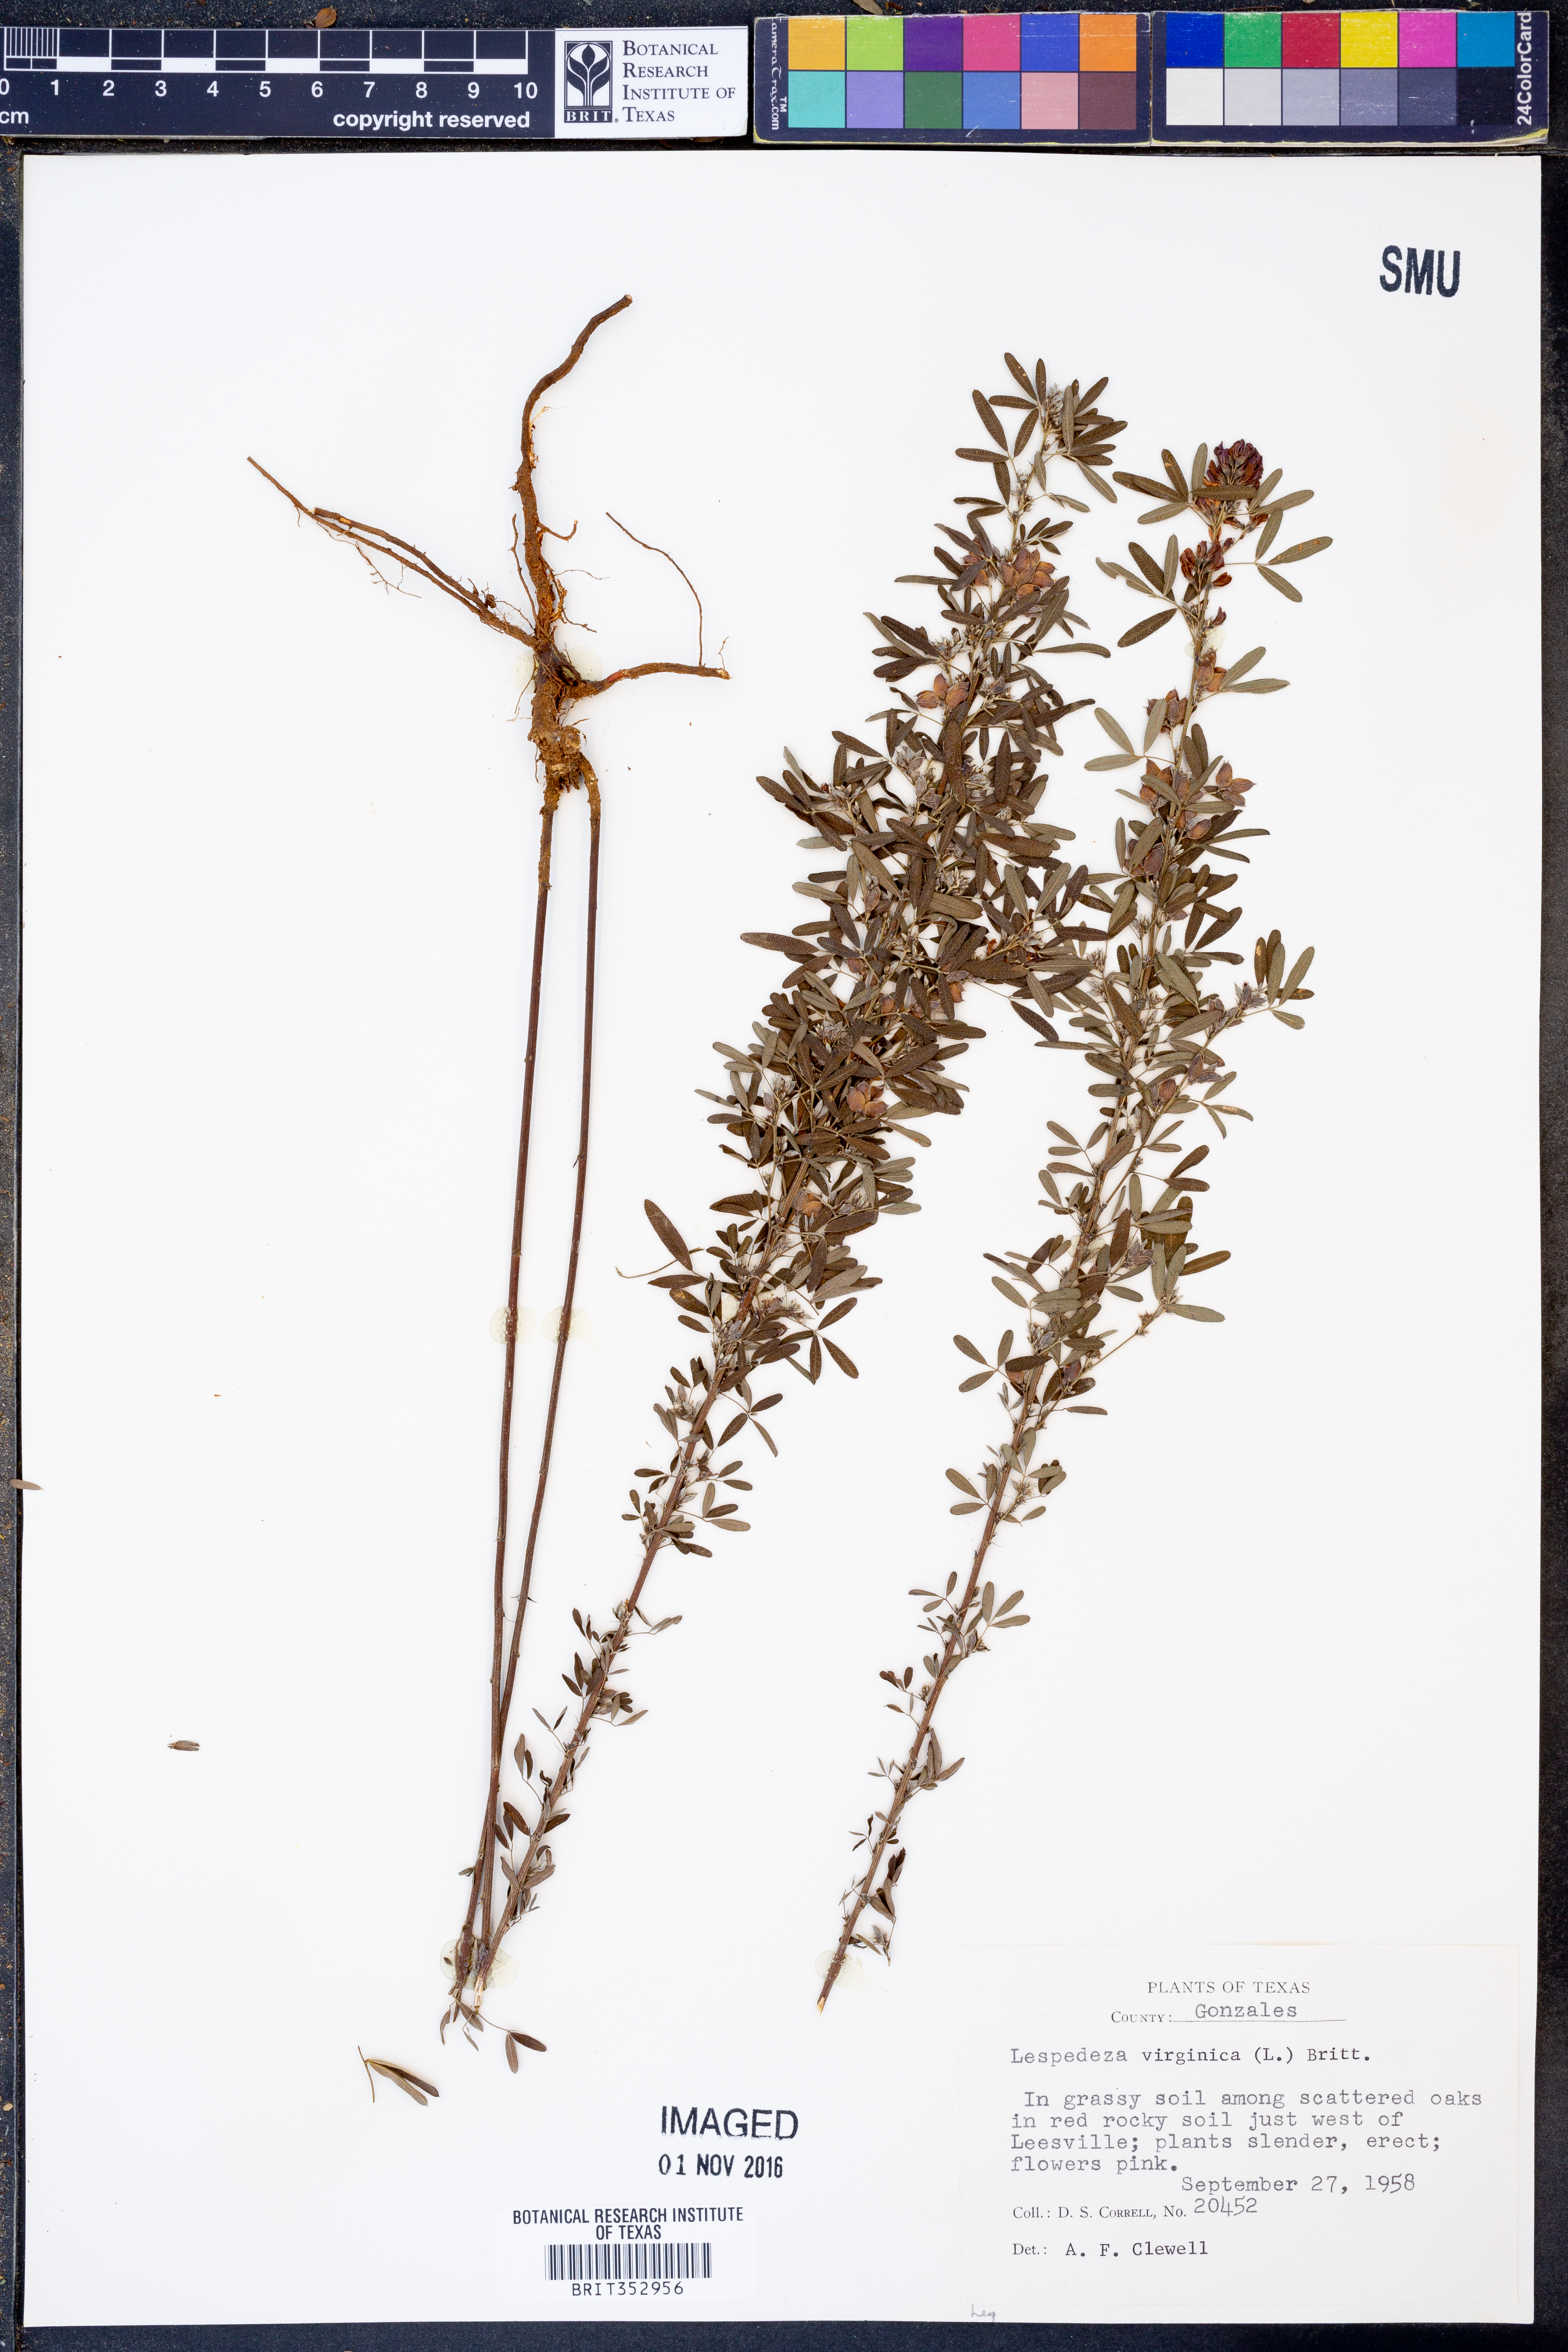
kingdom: Plantae
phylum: Tracheophyta
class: Magnoliopsida
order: Fabales
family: Fabaceae
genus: Lespedeza
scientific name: Lespedeza virginica
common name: Slender bush-clover
